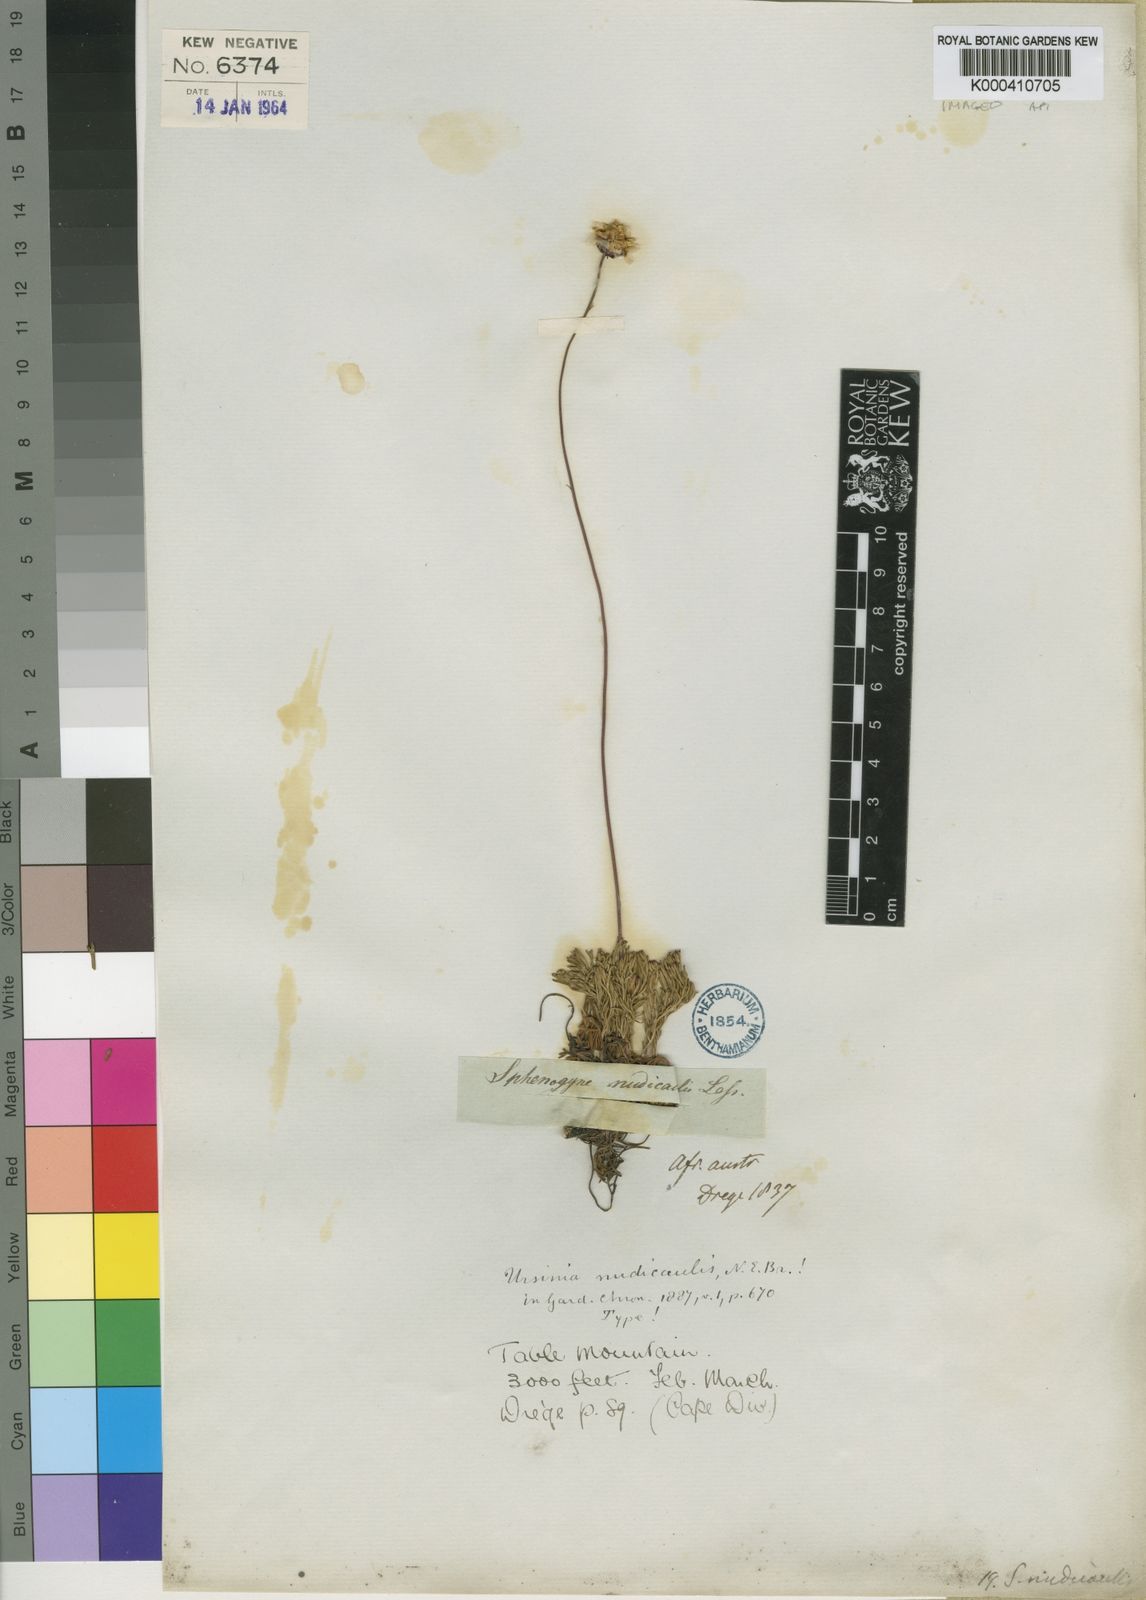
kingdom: Plantae
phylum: Tracheophyta
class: Magnoliopsida
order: Asterales
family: Asteraceae
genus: Ursinia
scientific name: Ursinia nudicaulis
